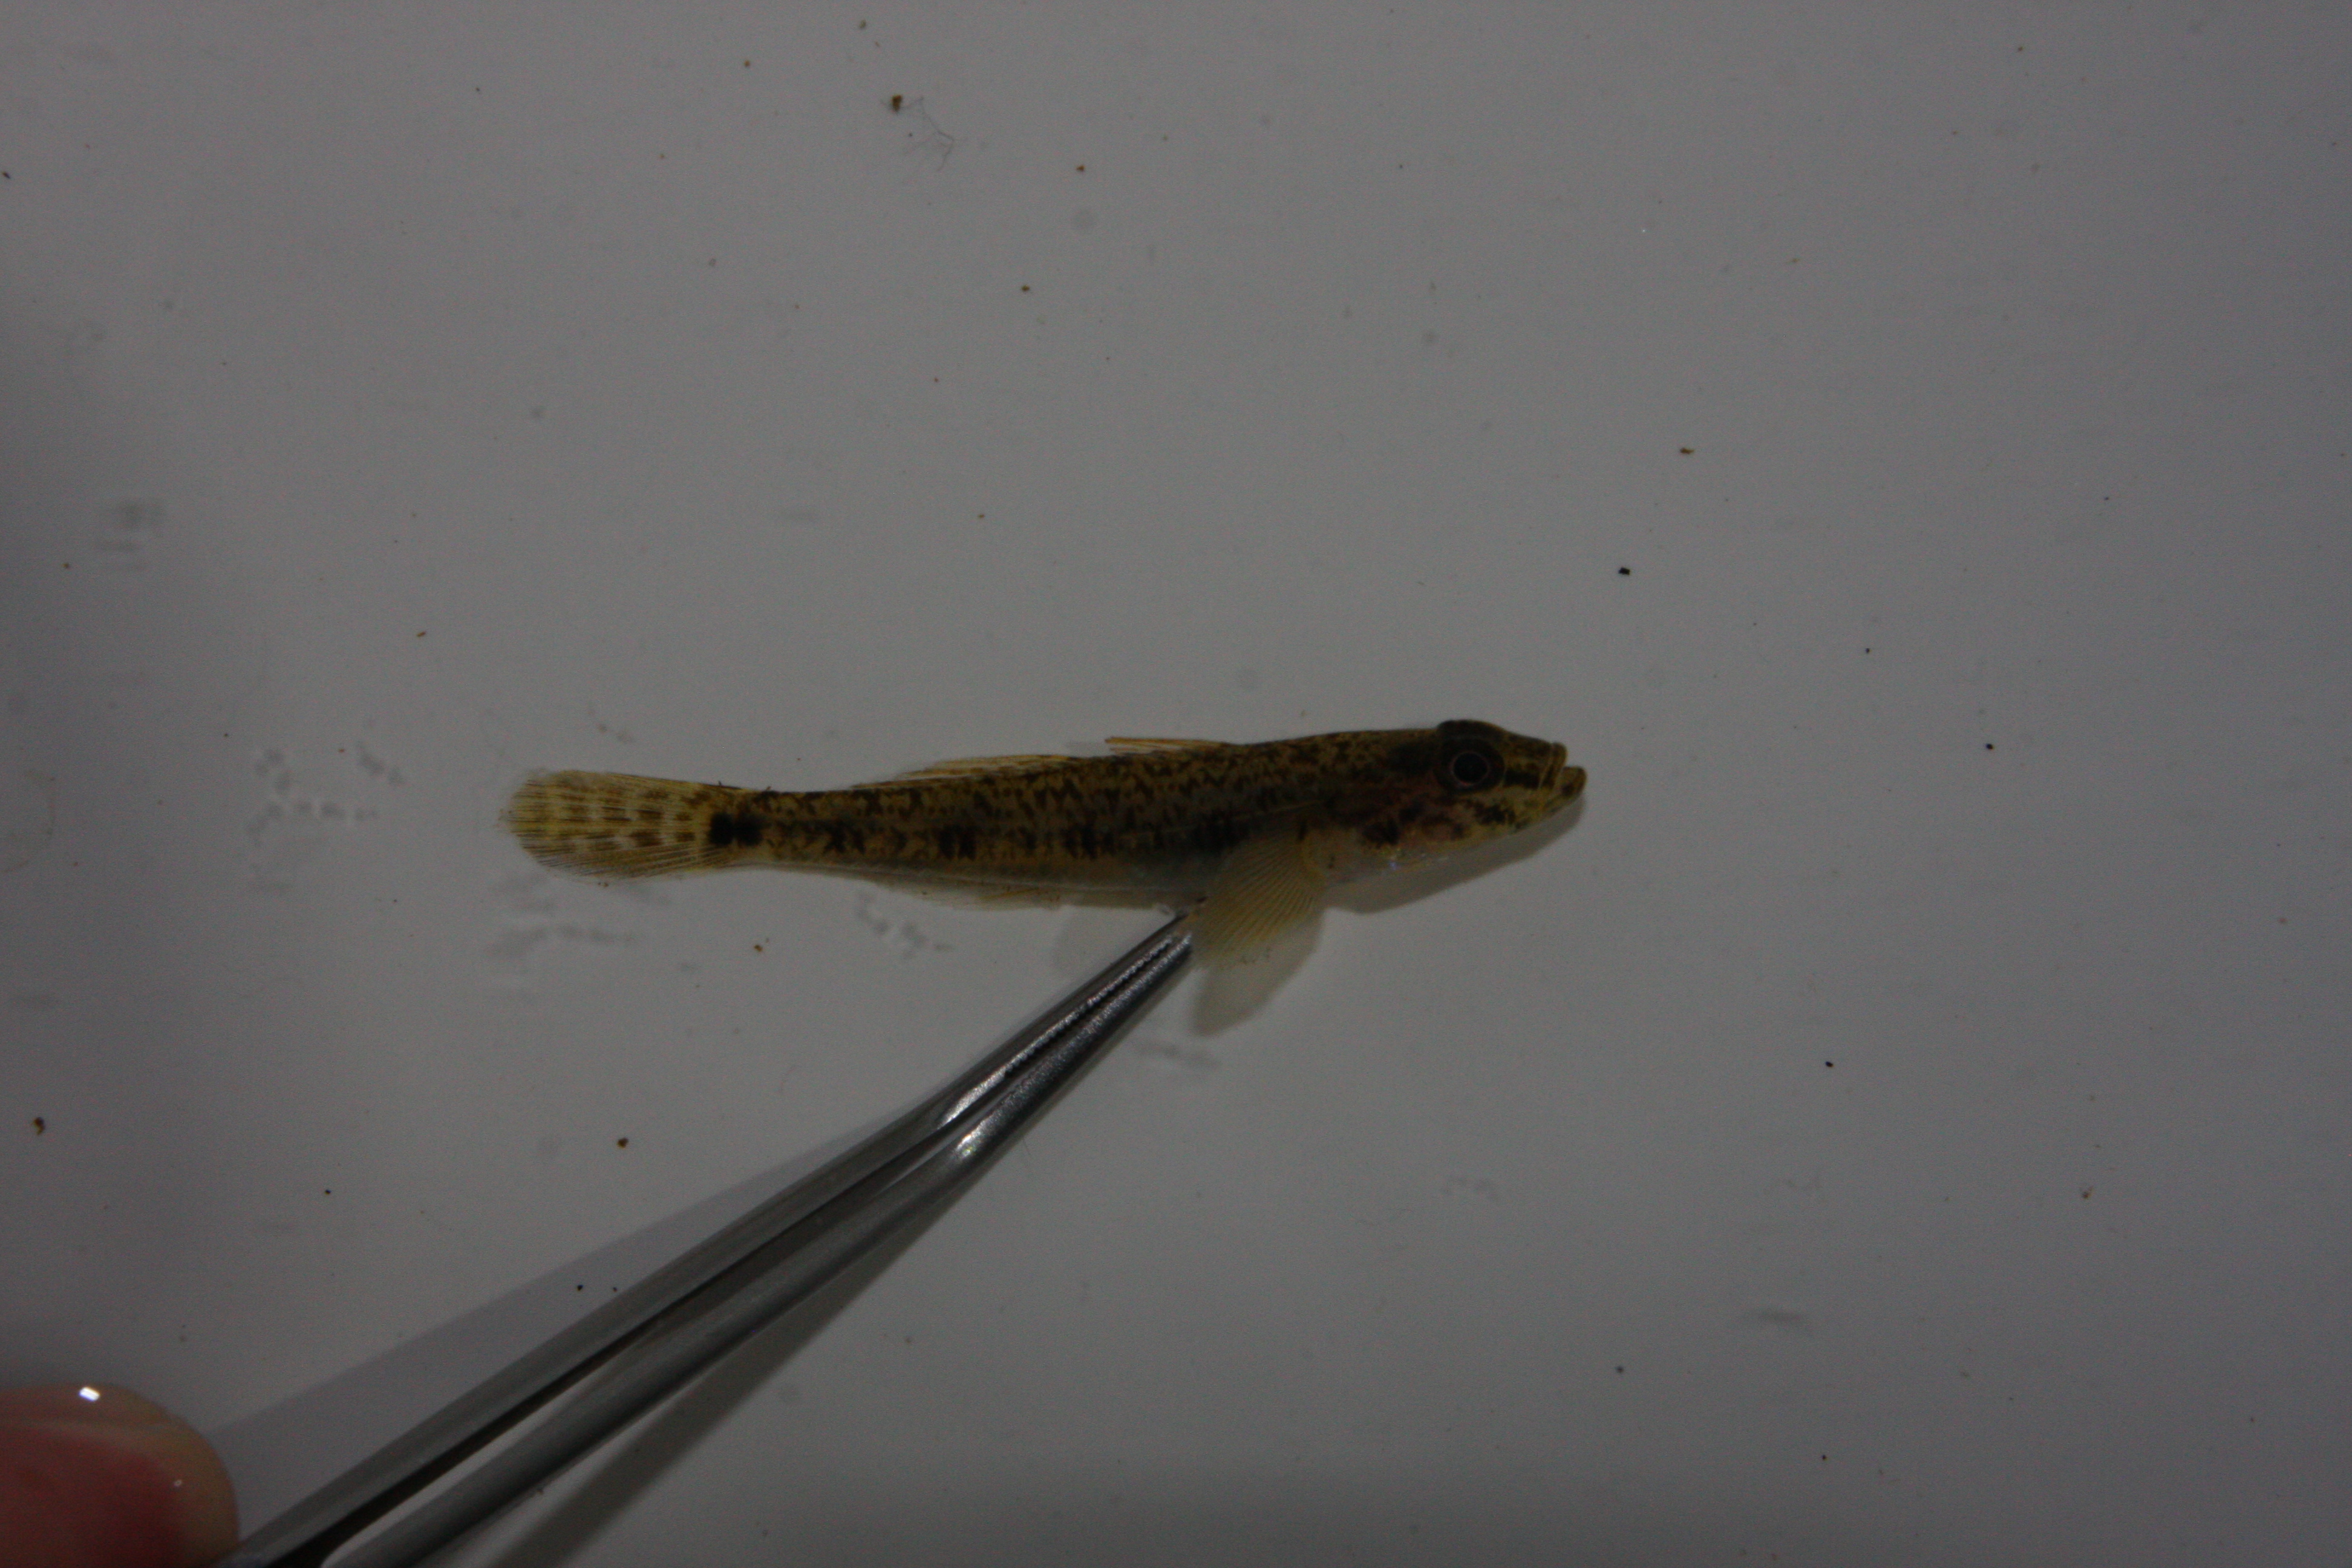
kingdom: Animalia
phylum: Chordata
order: Perciformes
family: Gobiidae
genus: Glossogobius
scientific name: Glossogobius callidus
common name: River goby
